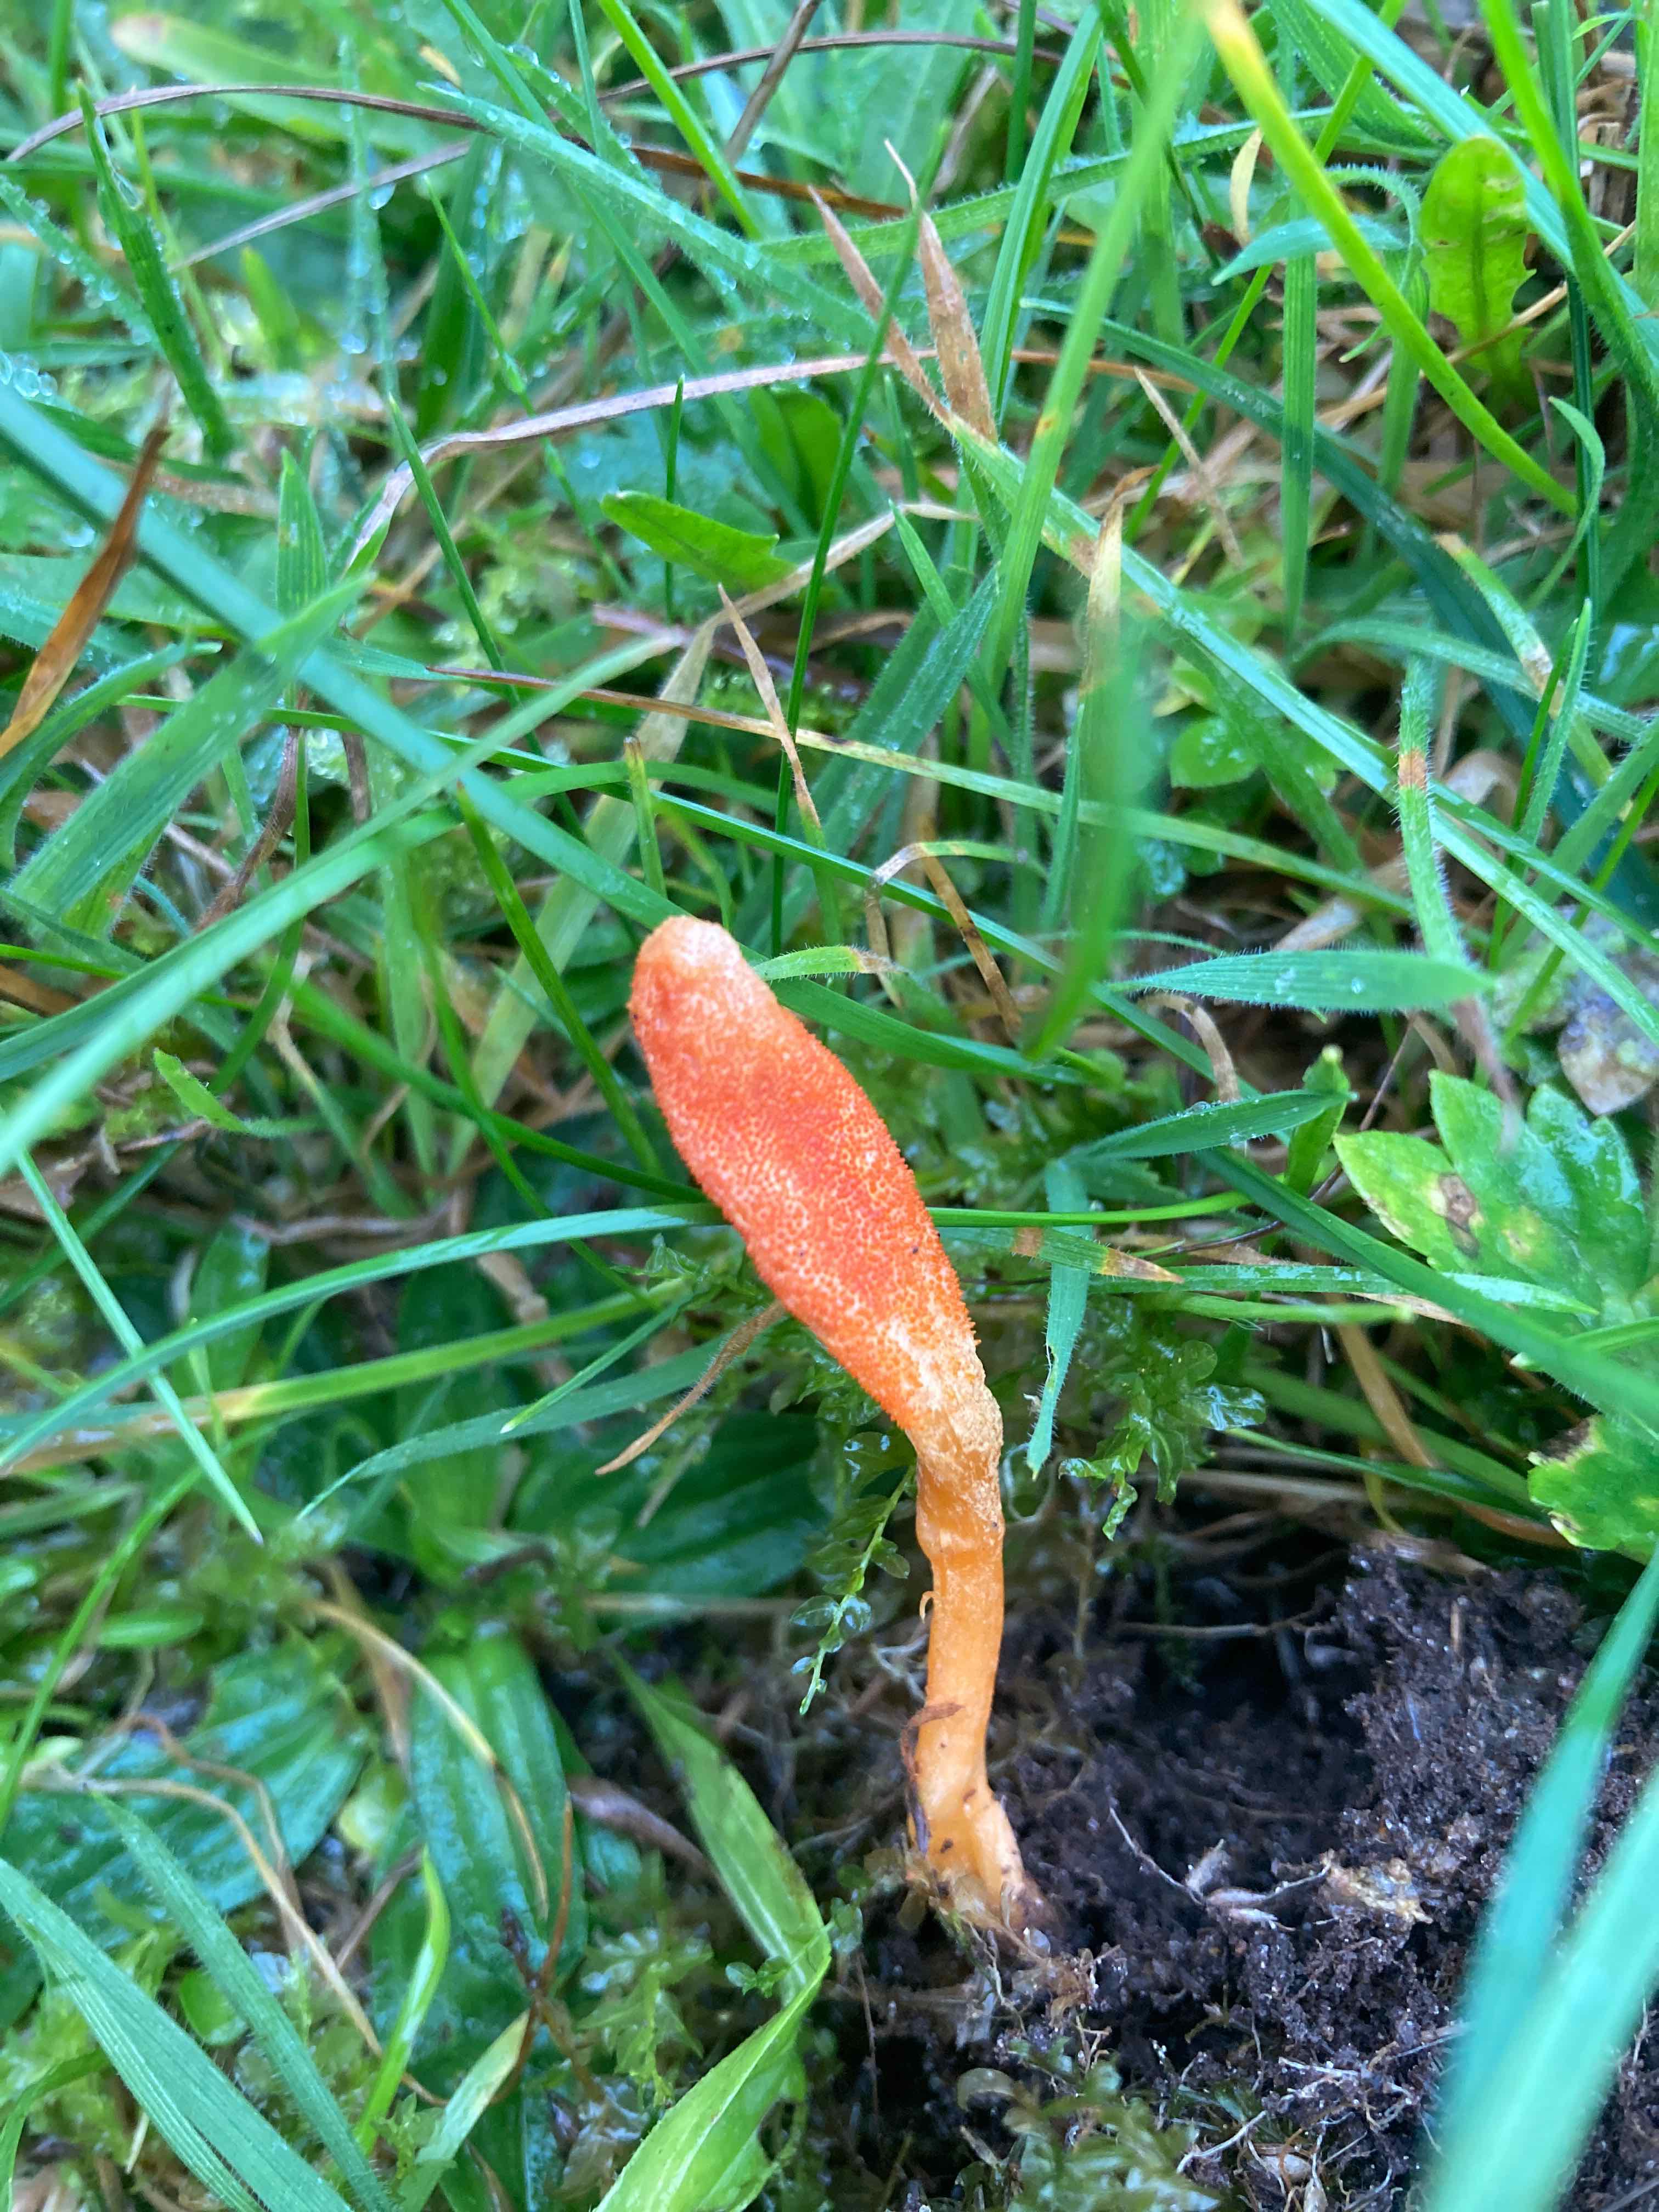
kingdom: Fungi
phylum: Ascomycota
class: Sordariomycetes
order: Hypocreales
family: Cordycipitaceae
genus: Cordyceps
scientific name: Cordyceps militaris
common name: puppe-snyltekølle
